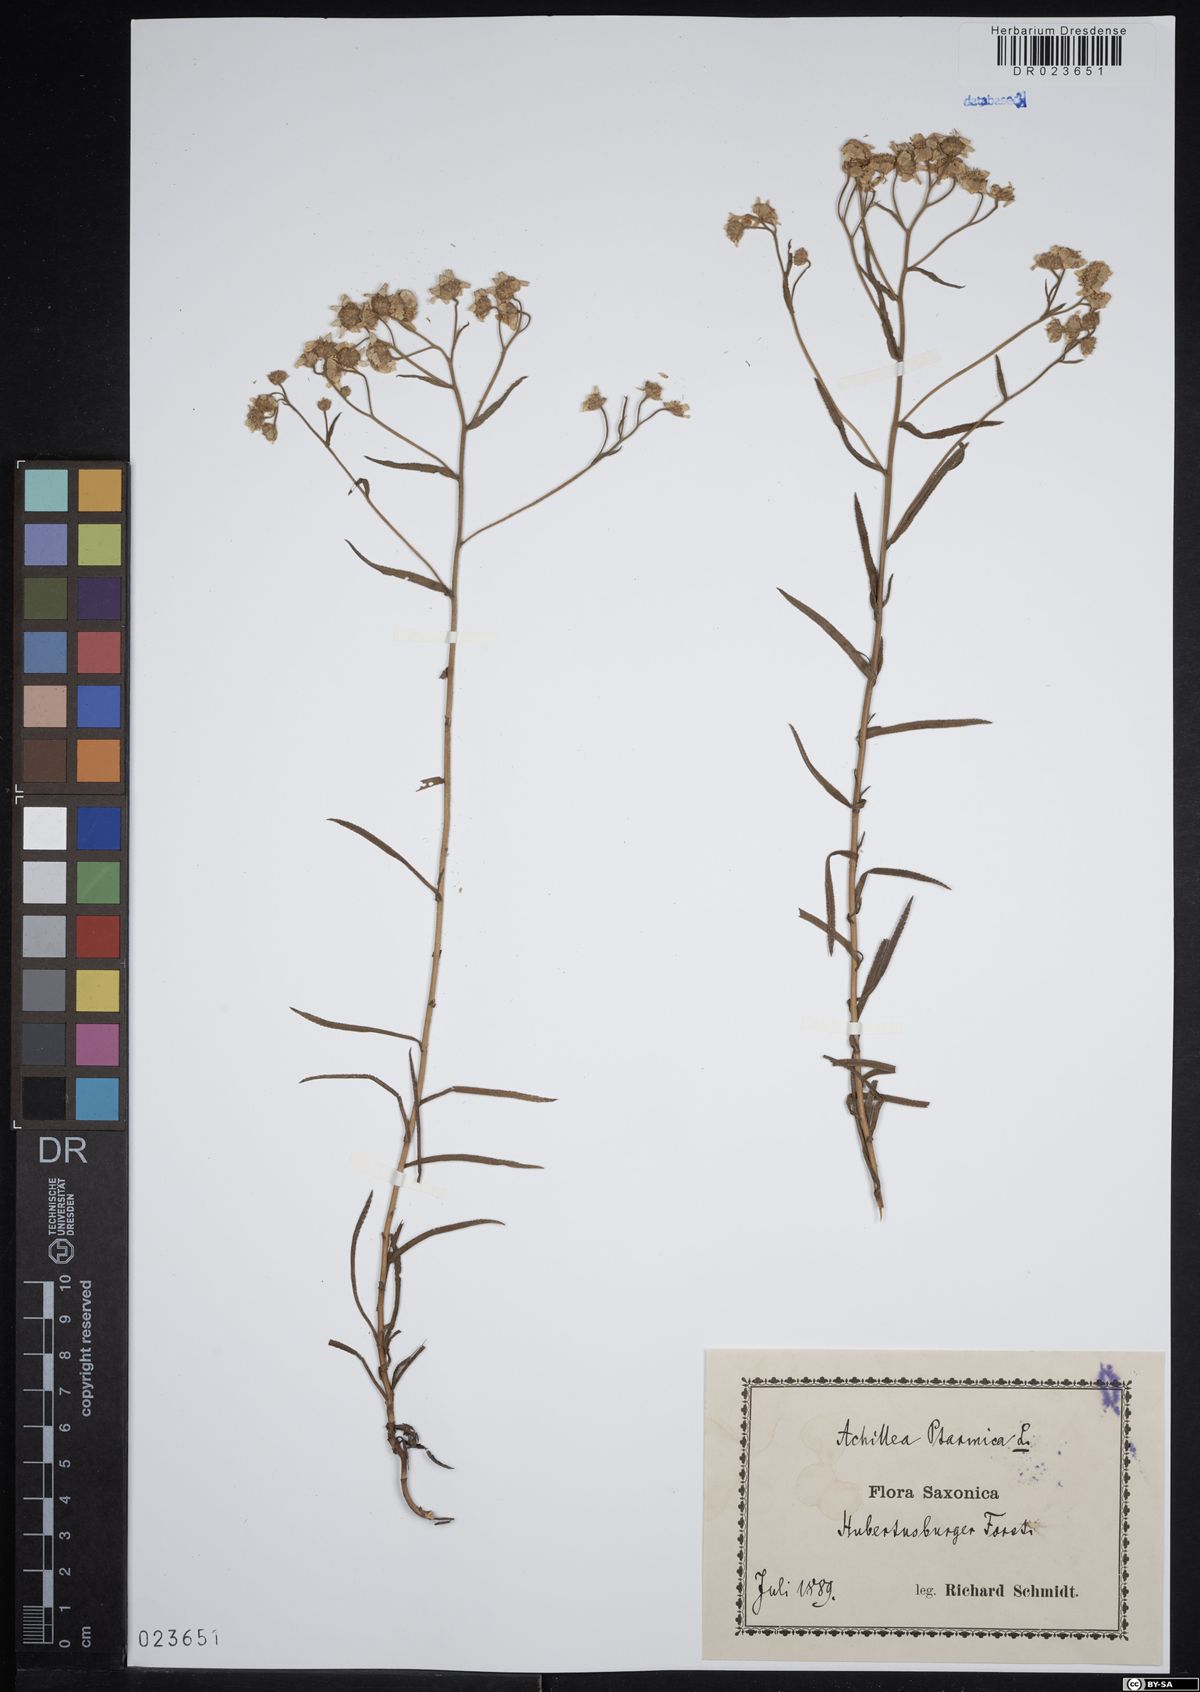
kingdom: Plantae
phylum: Tracheophyta
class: Magnoliopsida
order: Asterales
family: Asteraceae
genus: Achillea
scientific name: Achillea ptarmica
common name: Sneezeweed
